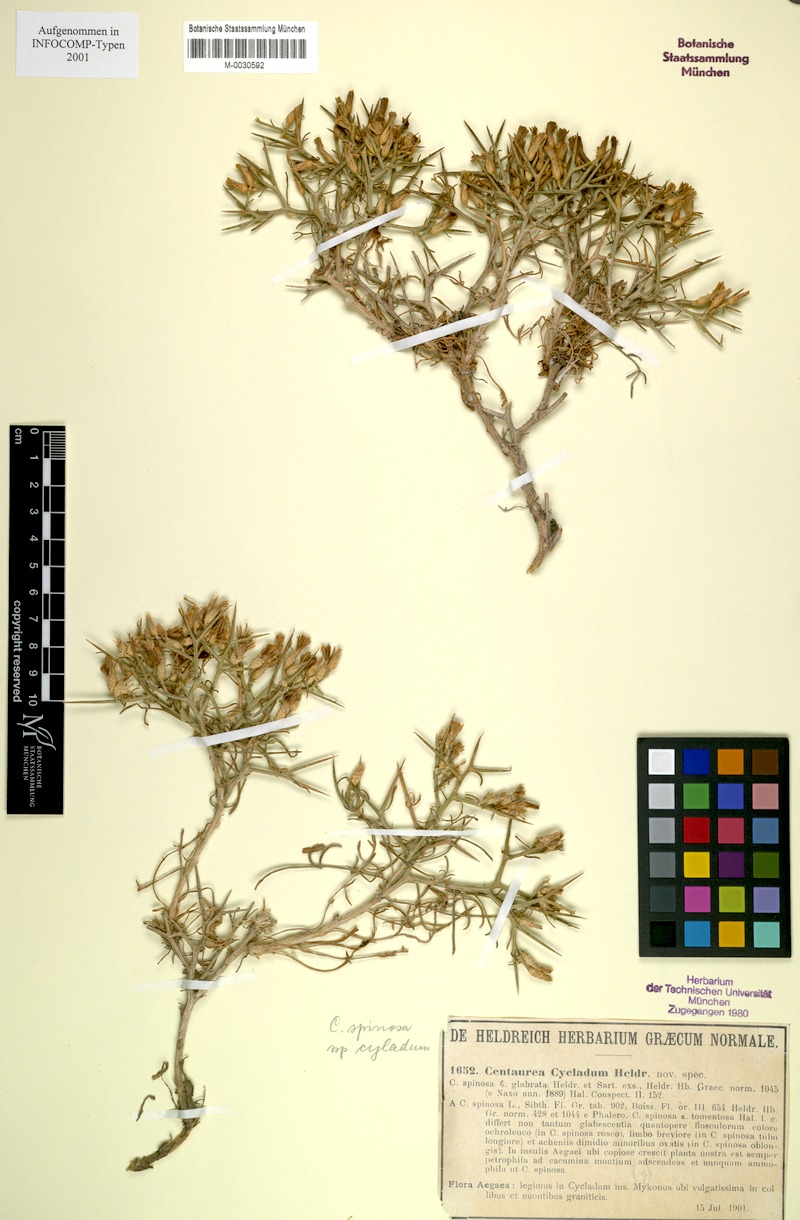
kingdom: Plantae
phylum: Tracheophyta
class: Magnoliopsida
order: Asterales
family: Asteraceae
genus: Centaurea
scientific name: Centaurea spinosa
